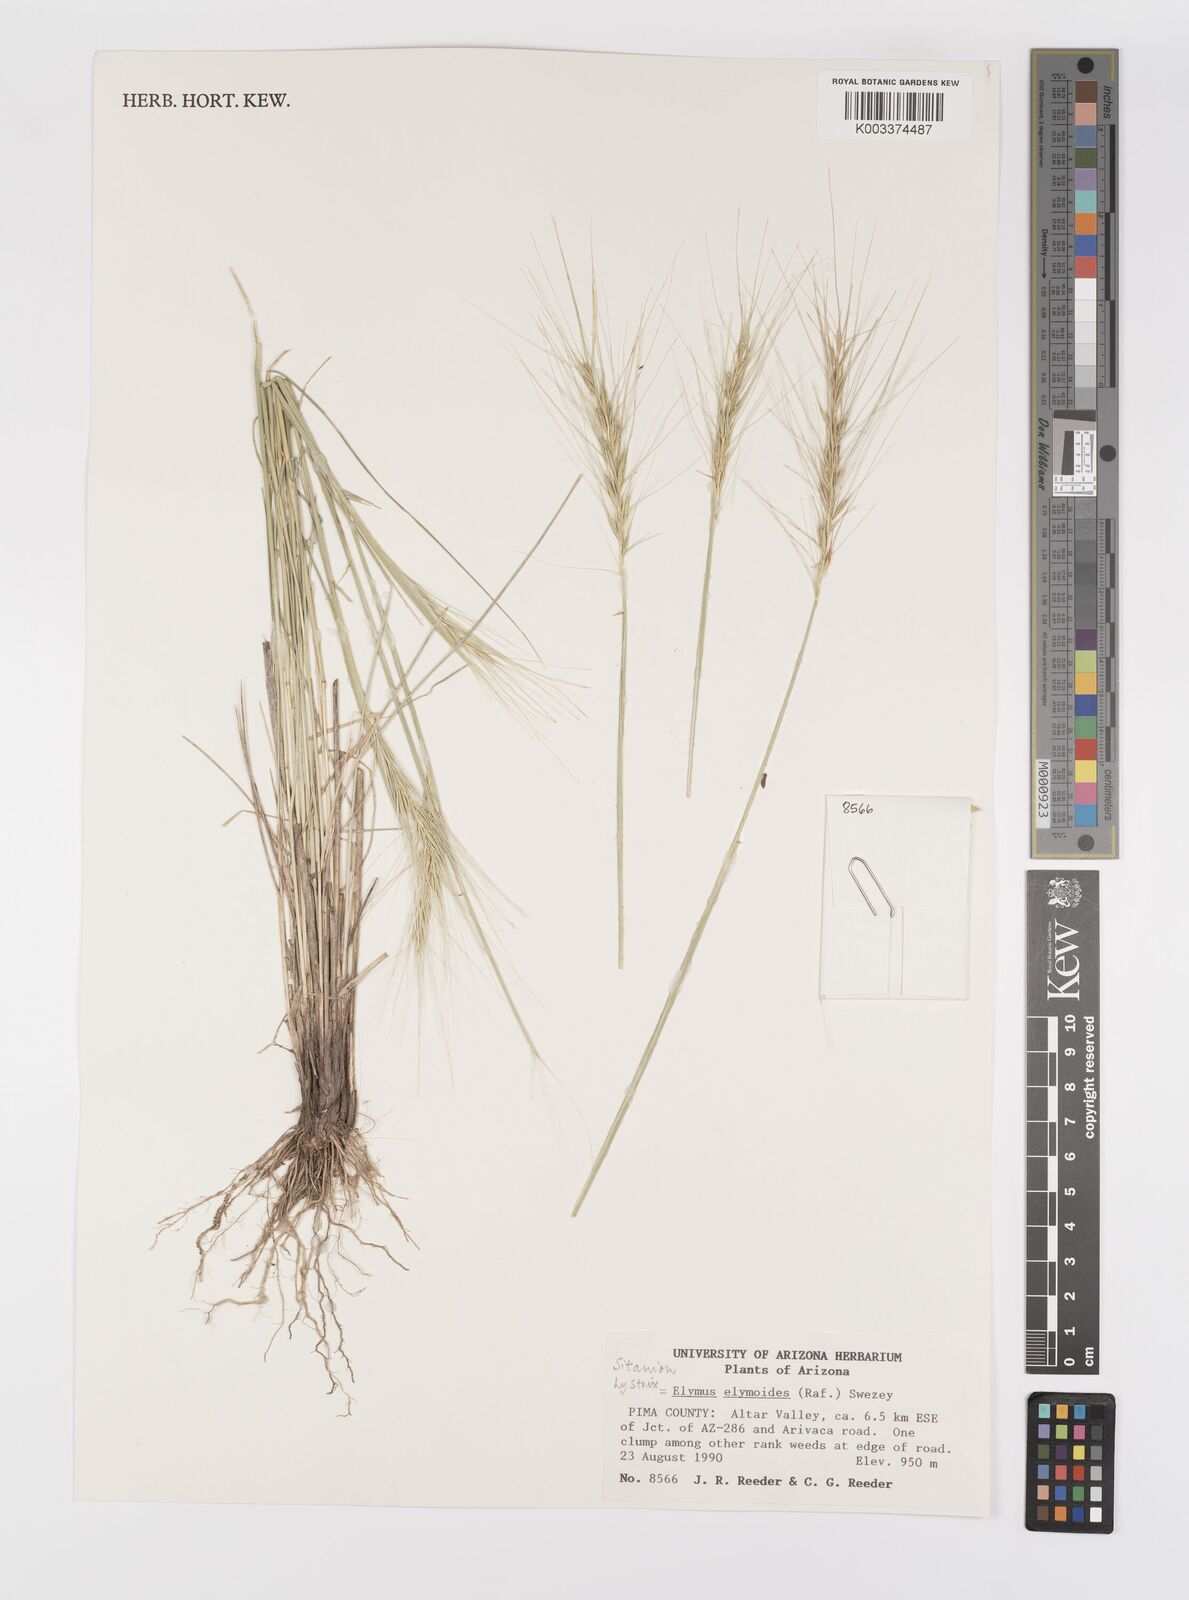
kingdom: Plantae
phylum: Tracheophyta
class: Liliopsida
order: Poales
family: Poaceae
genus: Elymus
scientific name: Elymus elymoides
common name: Bottlebrush squirreltail
